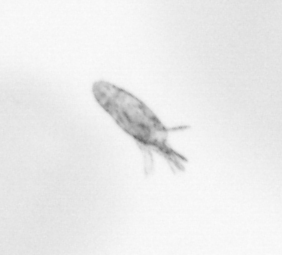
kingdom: Animalia
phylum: Arthropoda
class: Copepoda
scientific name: Copepoda
